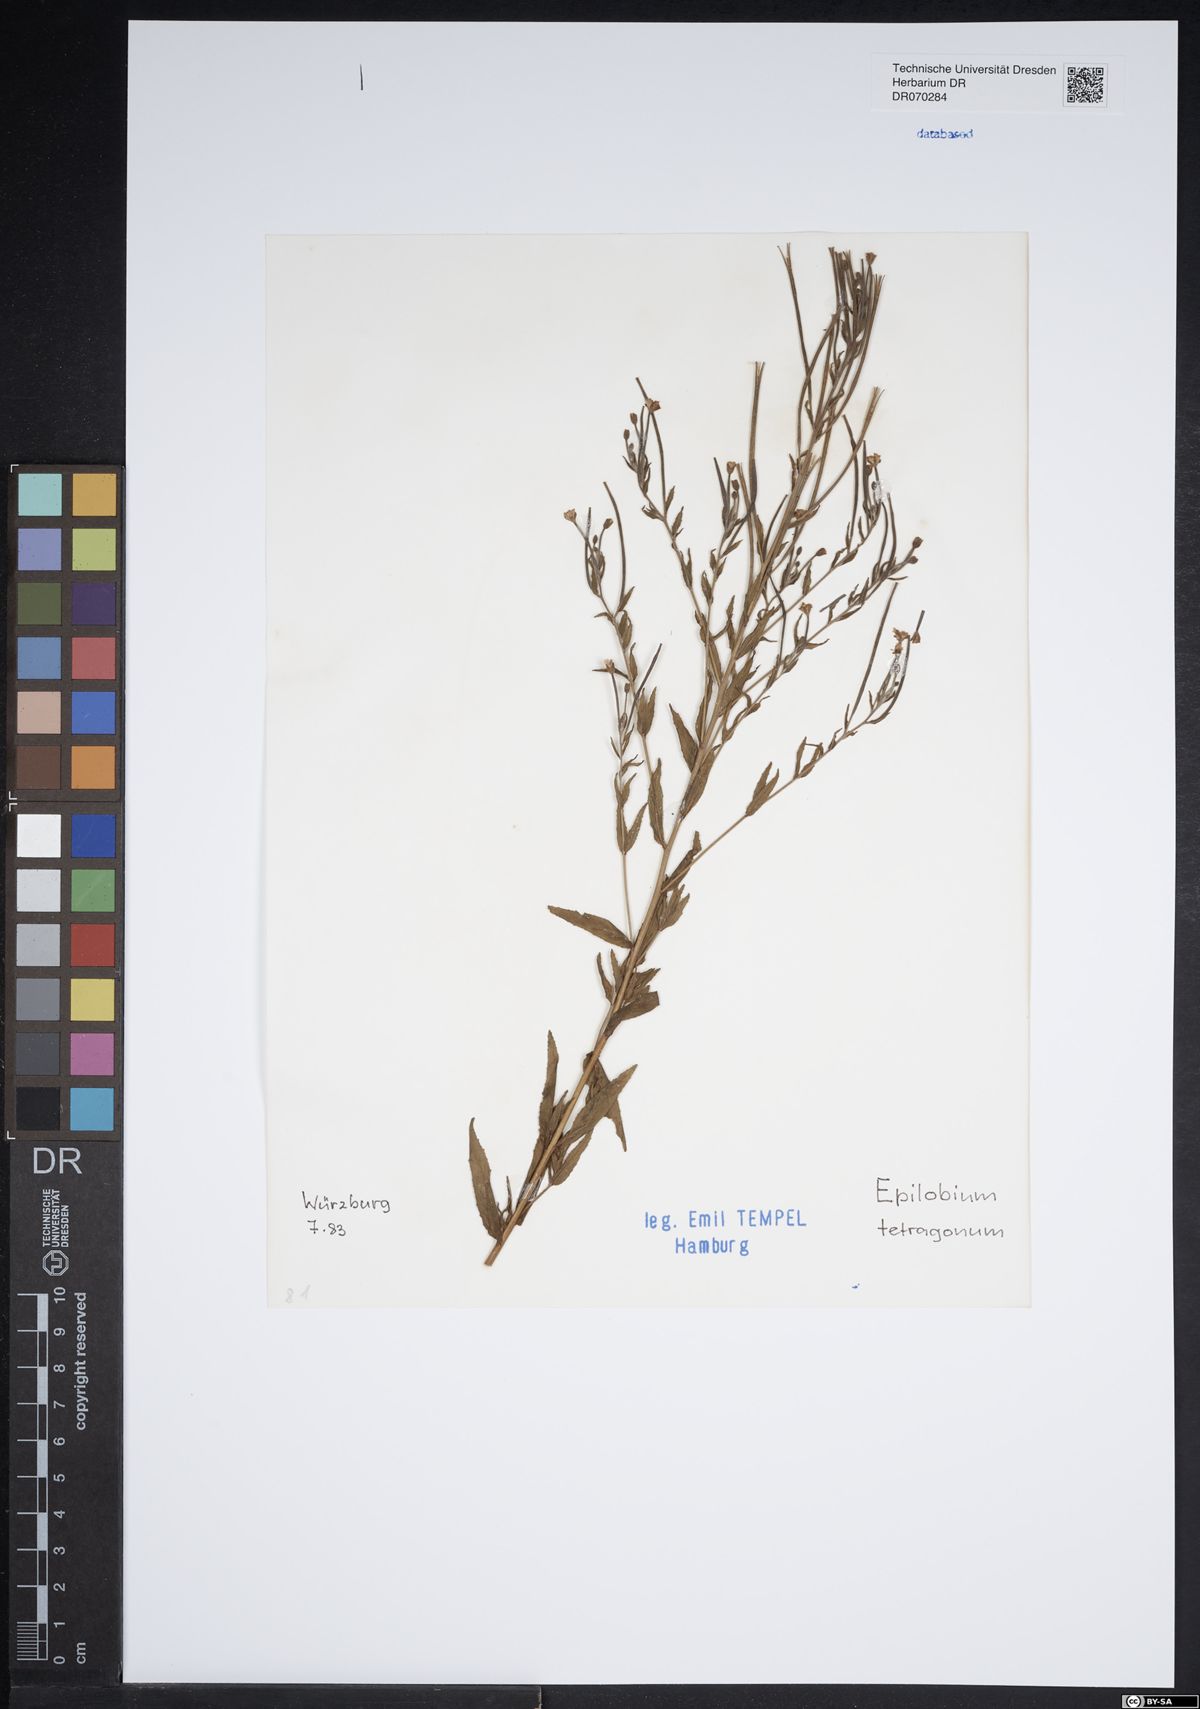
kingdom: Plantae
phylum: Tracheophyta
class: Magnoliopsida
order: Myrtales
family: Onagraceae
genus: Epilobium
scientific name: Epilobium tetragonum
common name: Square-stemmed willowherb
